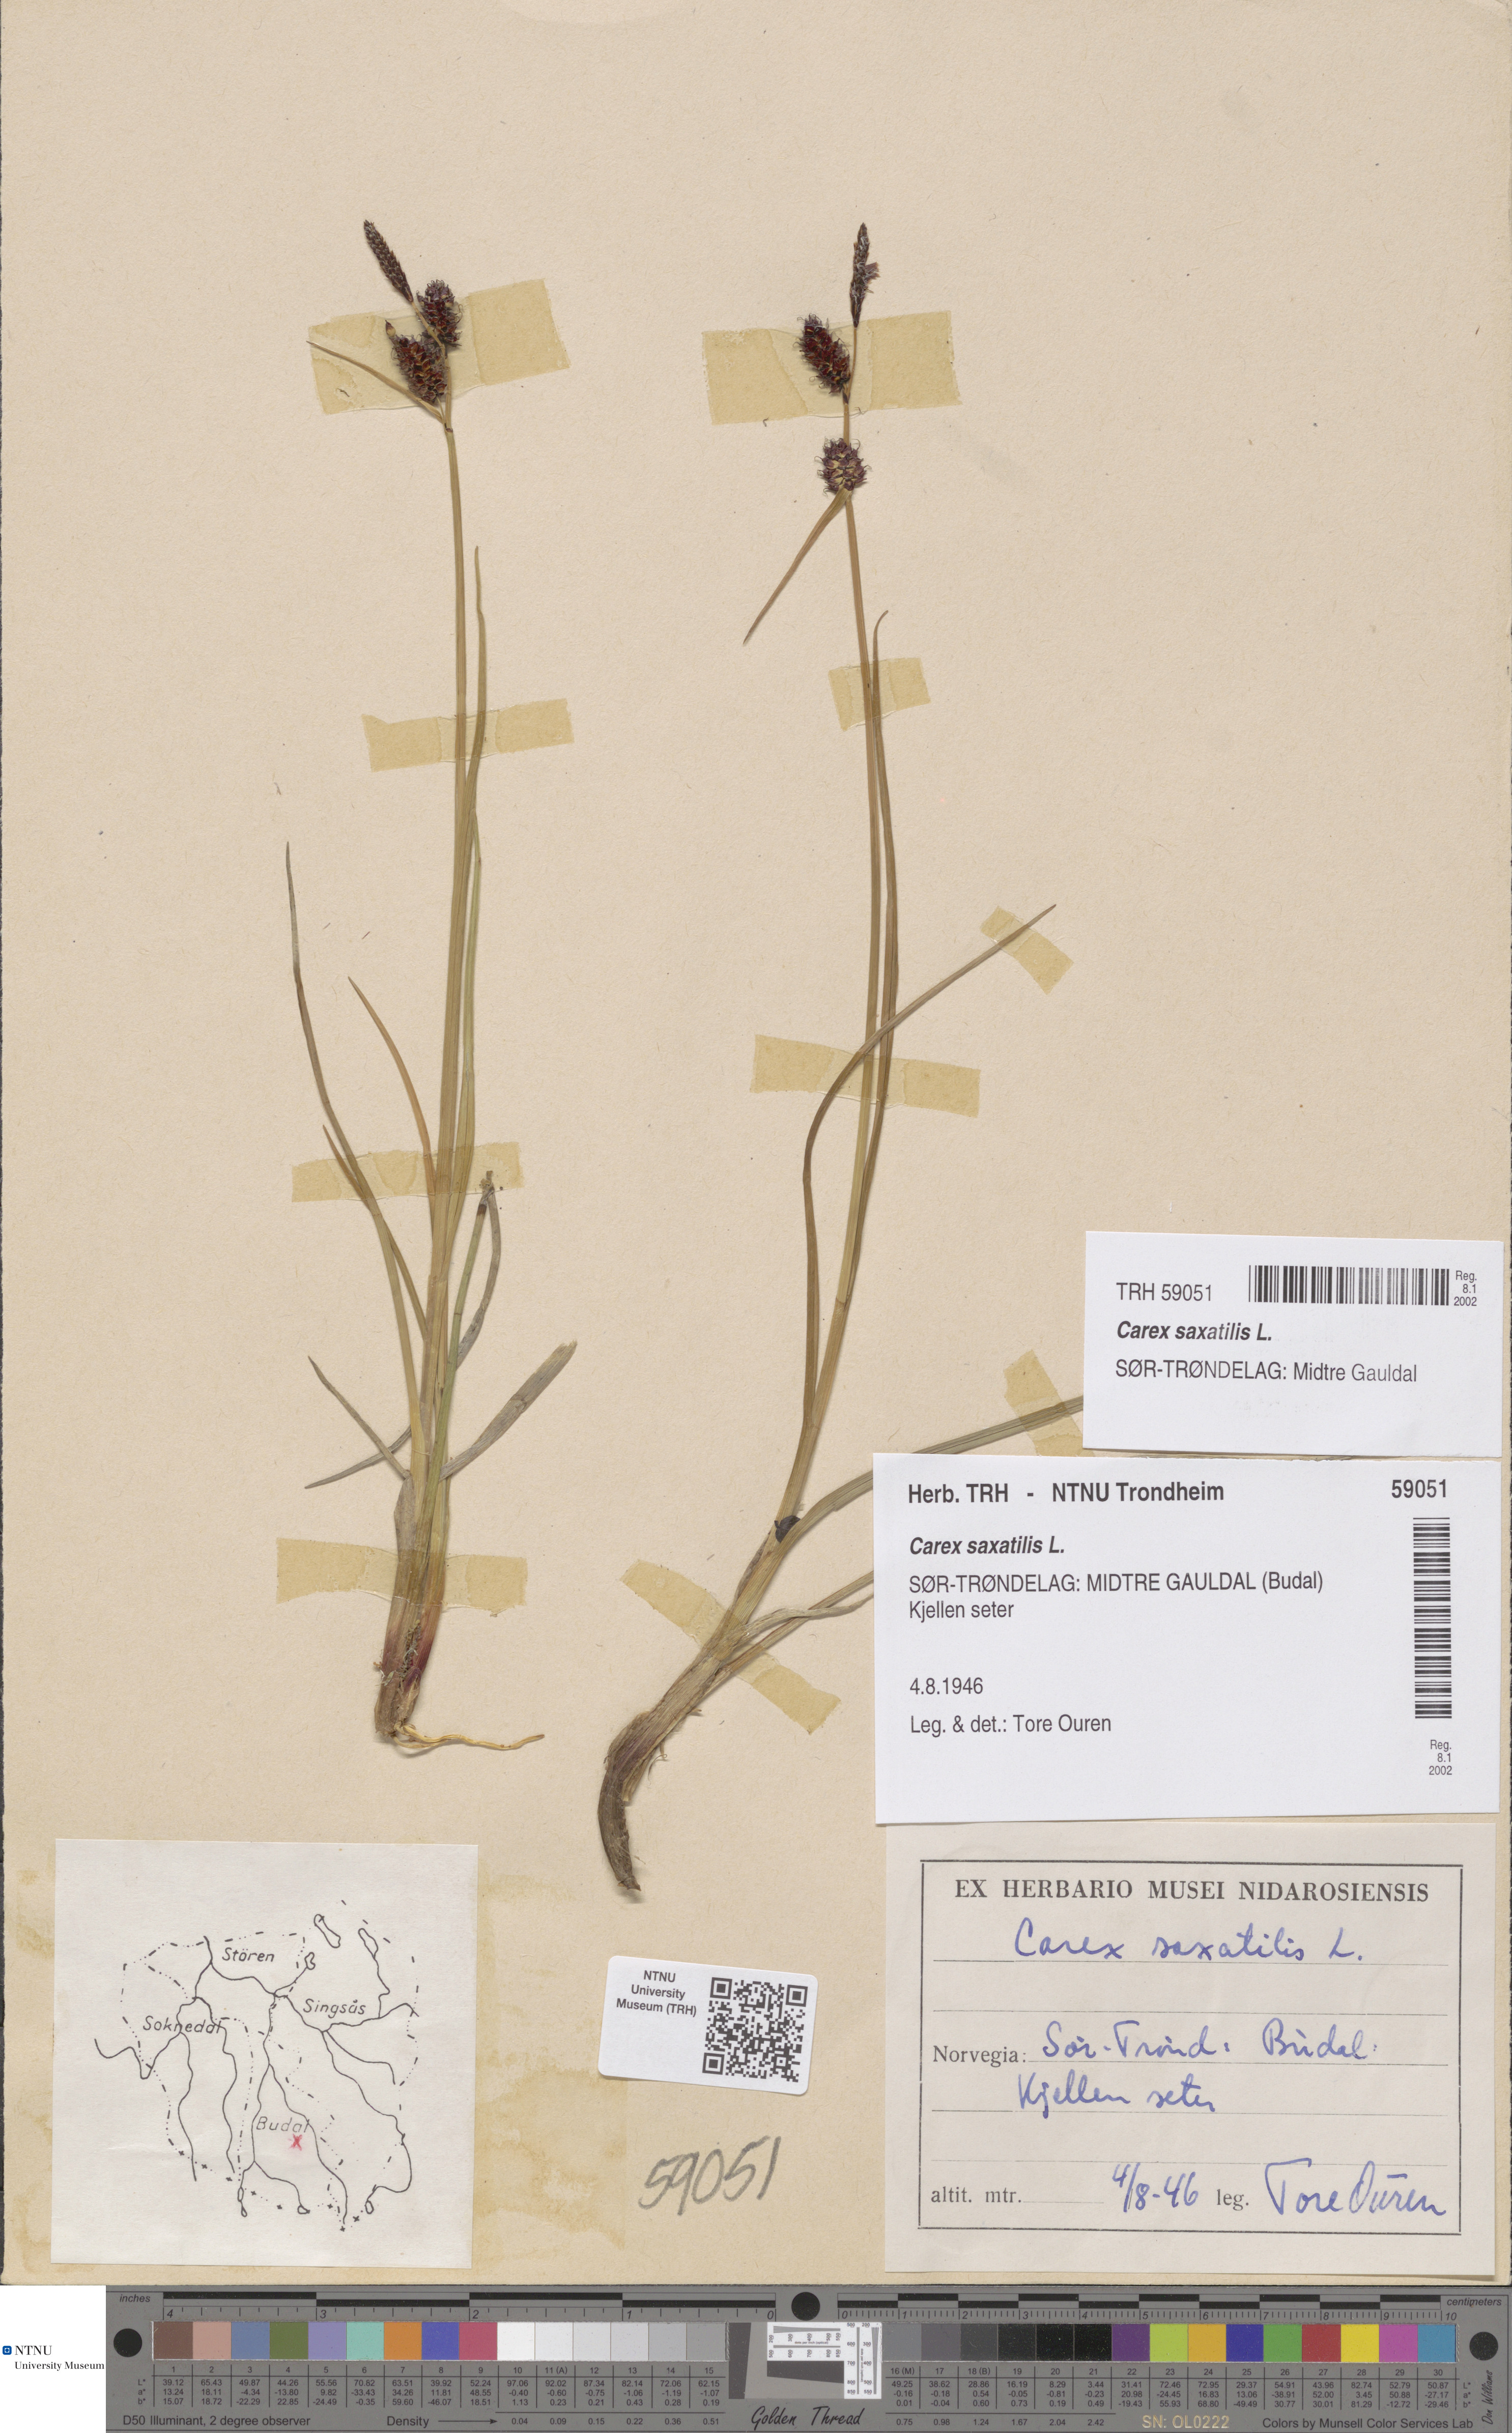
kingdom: Plantae
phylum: Tracheophyta
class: Liliopsida
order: Poales
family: Cyperaceae
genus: Carex
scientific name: Carex saxatilis
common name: Russet sedge
